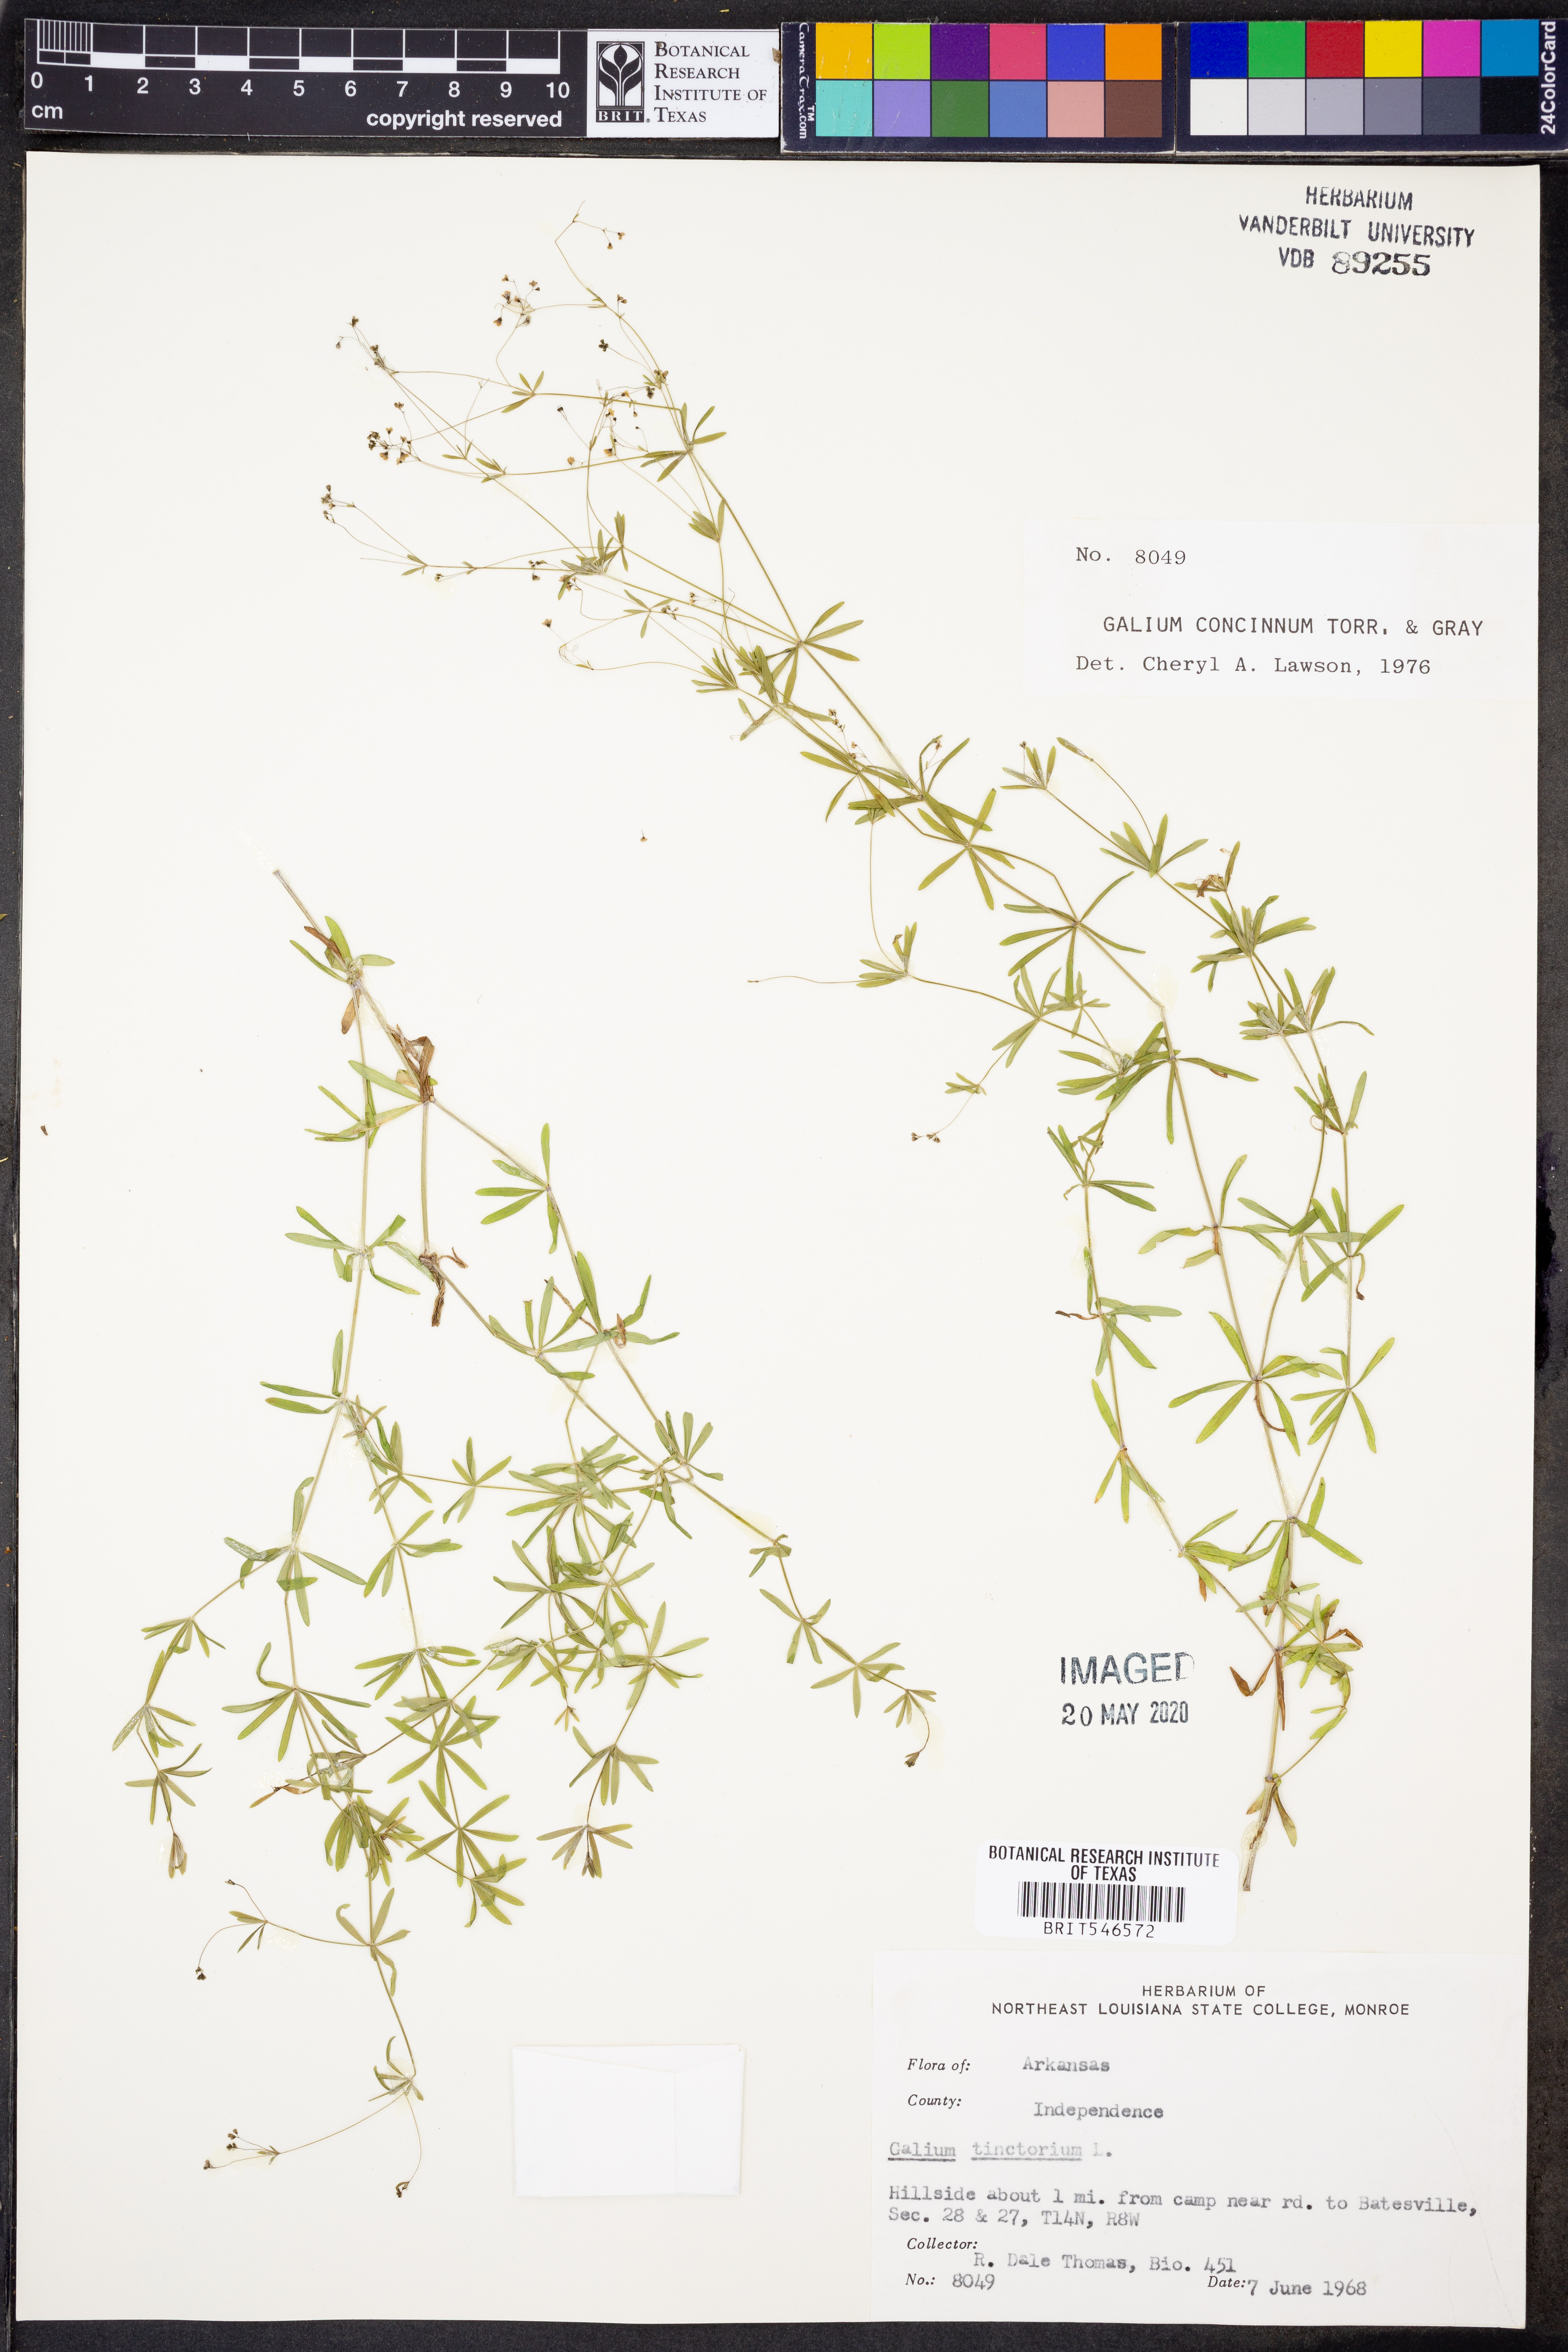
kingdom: Plantae
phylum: Tracheophyta
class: Magnoliopsida
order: Gentianales
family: Rubiaceae
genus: Galium
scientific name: Galium concinnum
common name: Shining bedstraw
